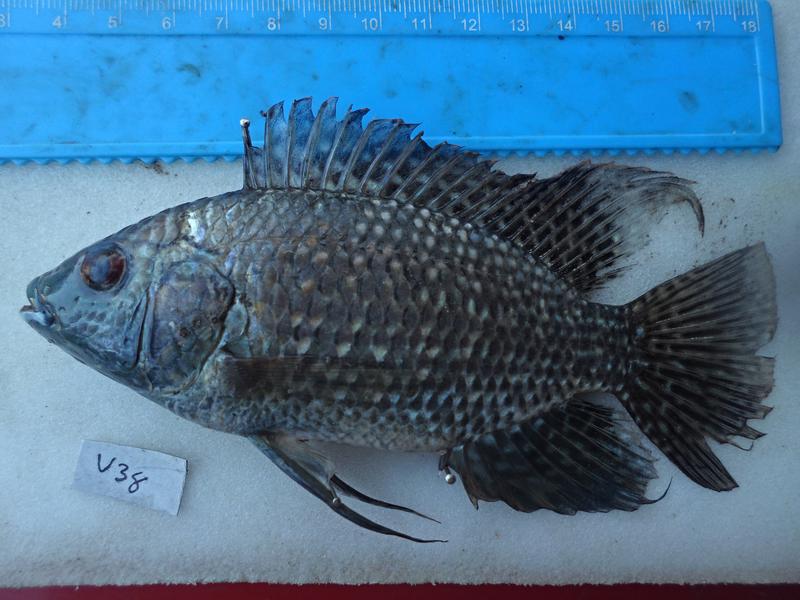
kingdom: Animalia
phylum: Chordata
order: Perciformes
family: Cichlidae
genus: Oreochromis
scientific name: Oreochromis leucostictus
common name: Blue spotted tilapia
